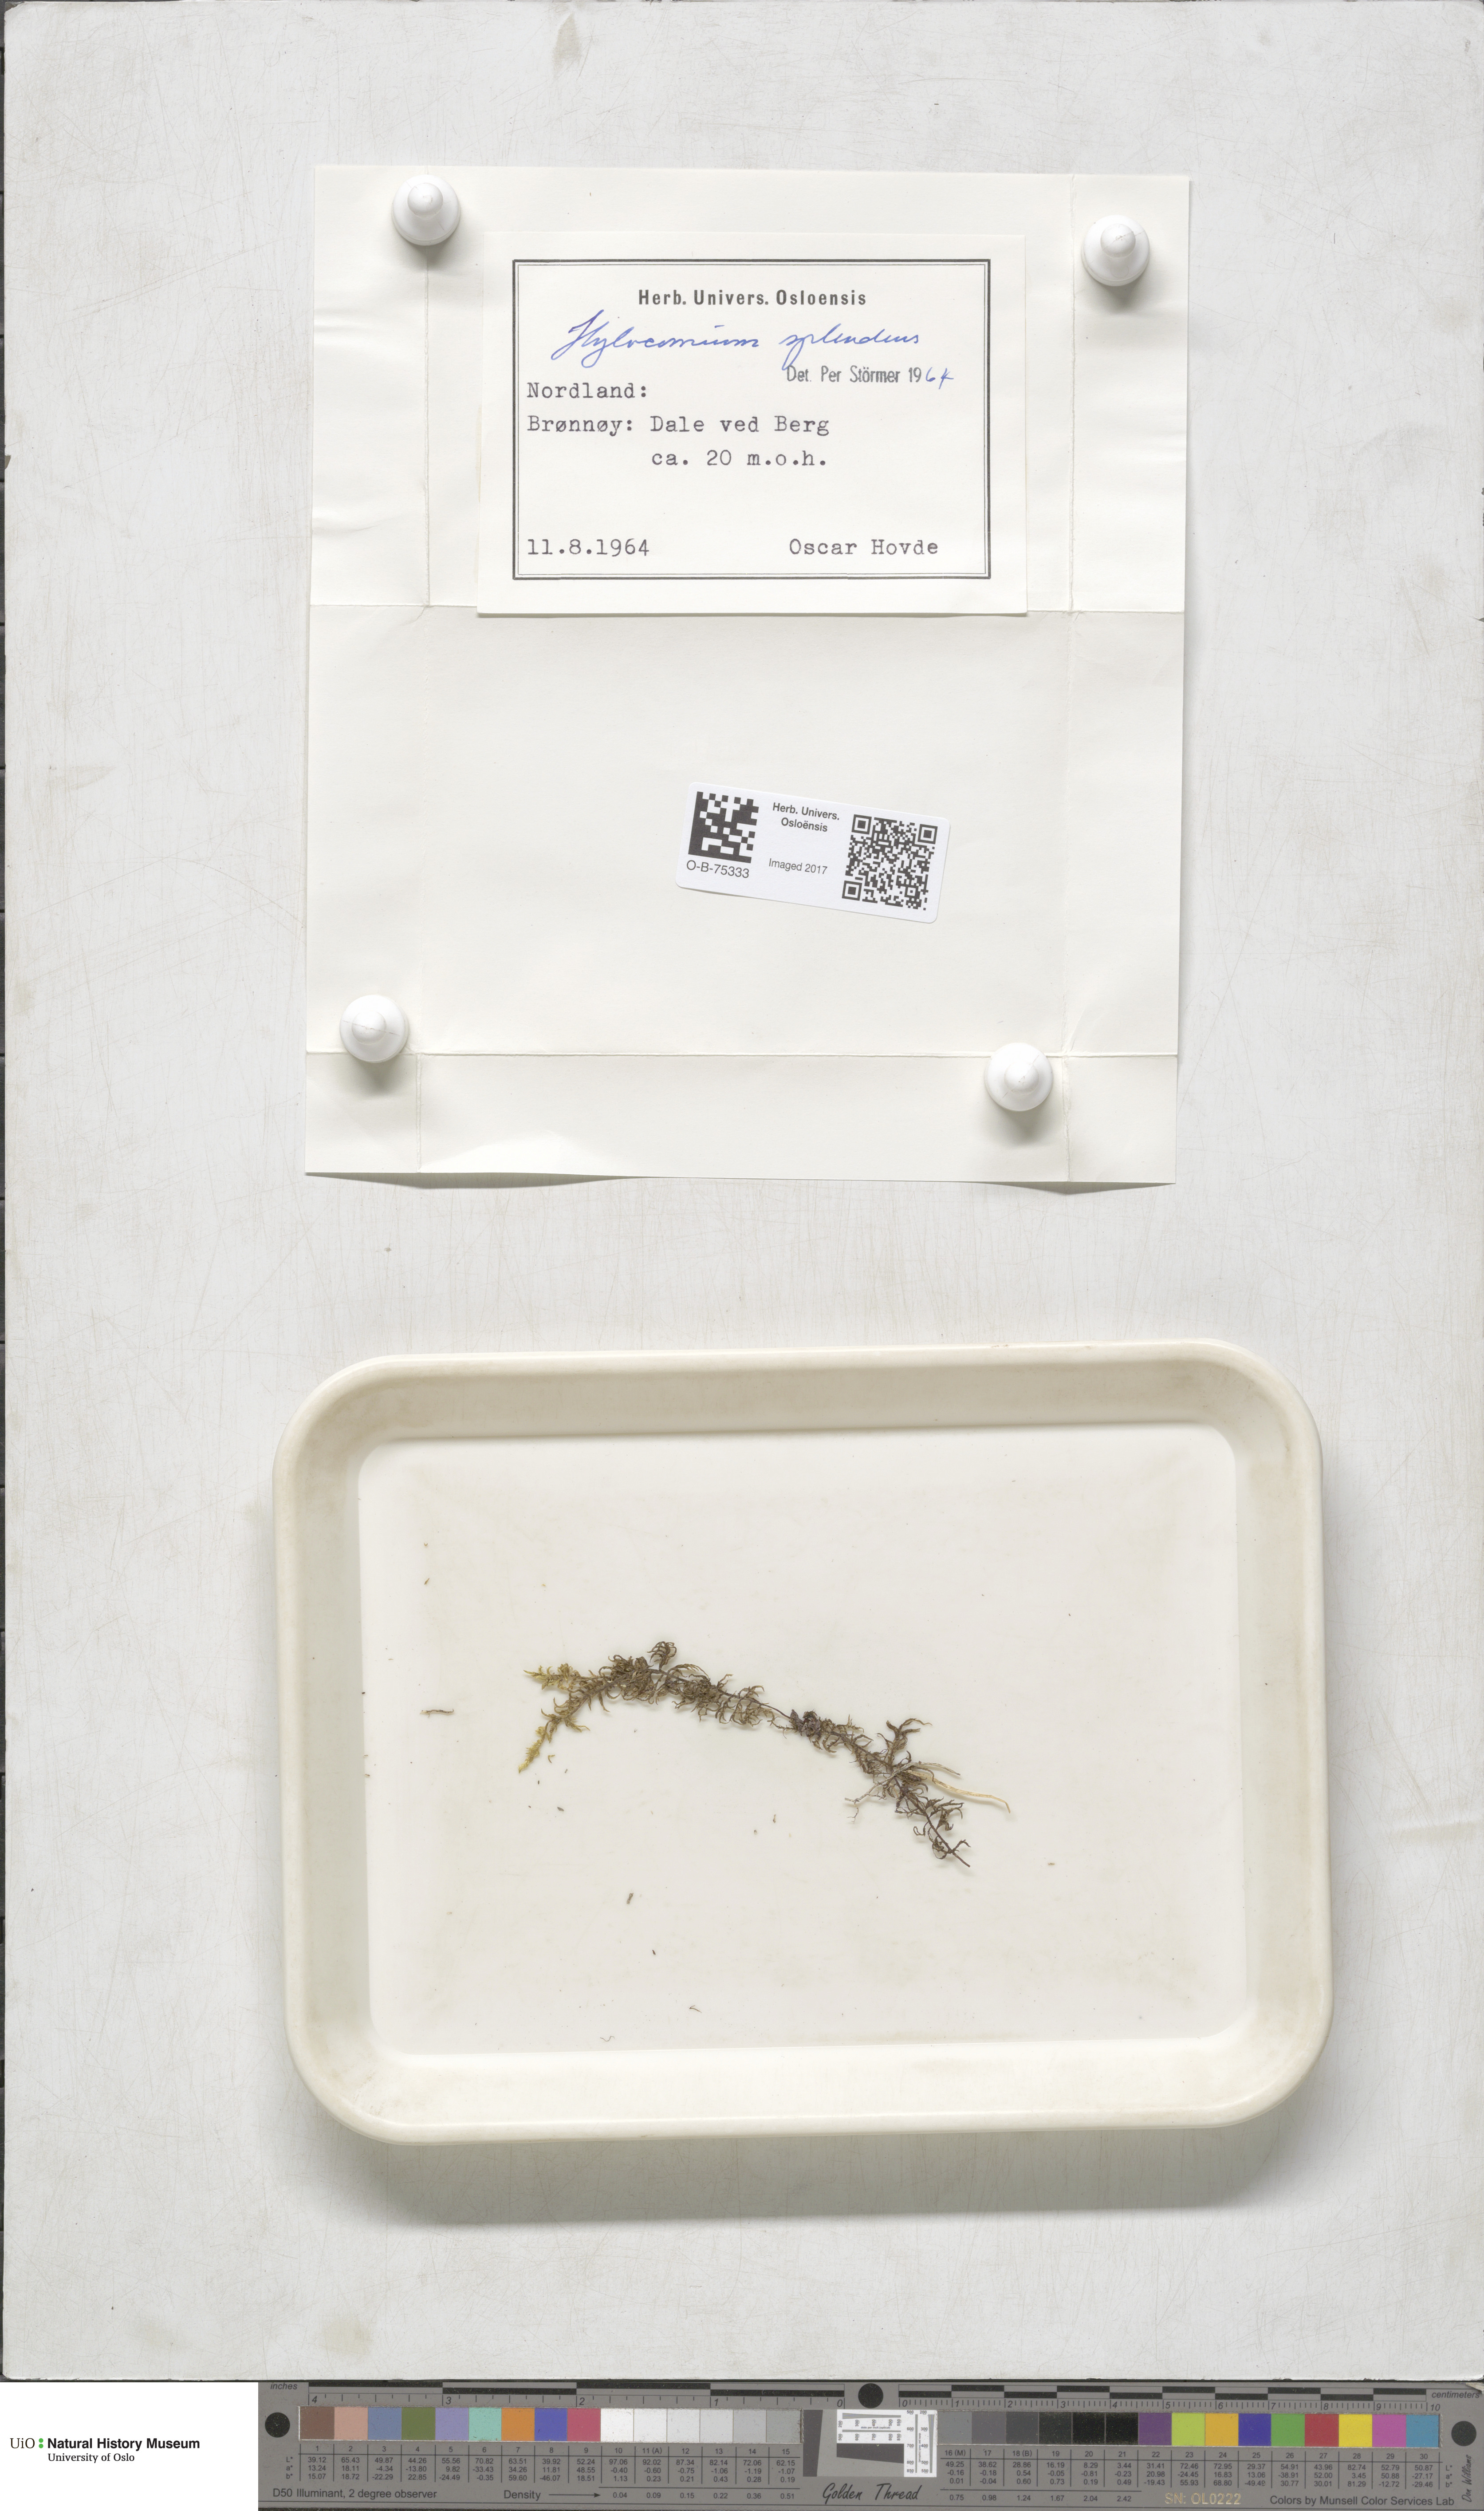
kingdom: Plantae
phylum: Bryophyta
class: Bryopsida
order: Hypnales
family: Hylocomiaceae
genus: Hylocomium
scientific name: Hylocomium splendens
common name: Stairstep moss
